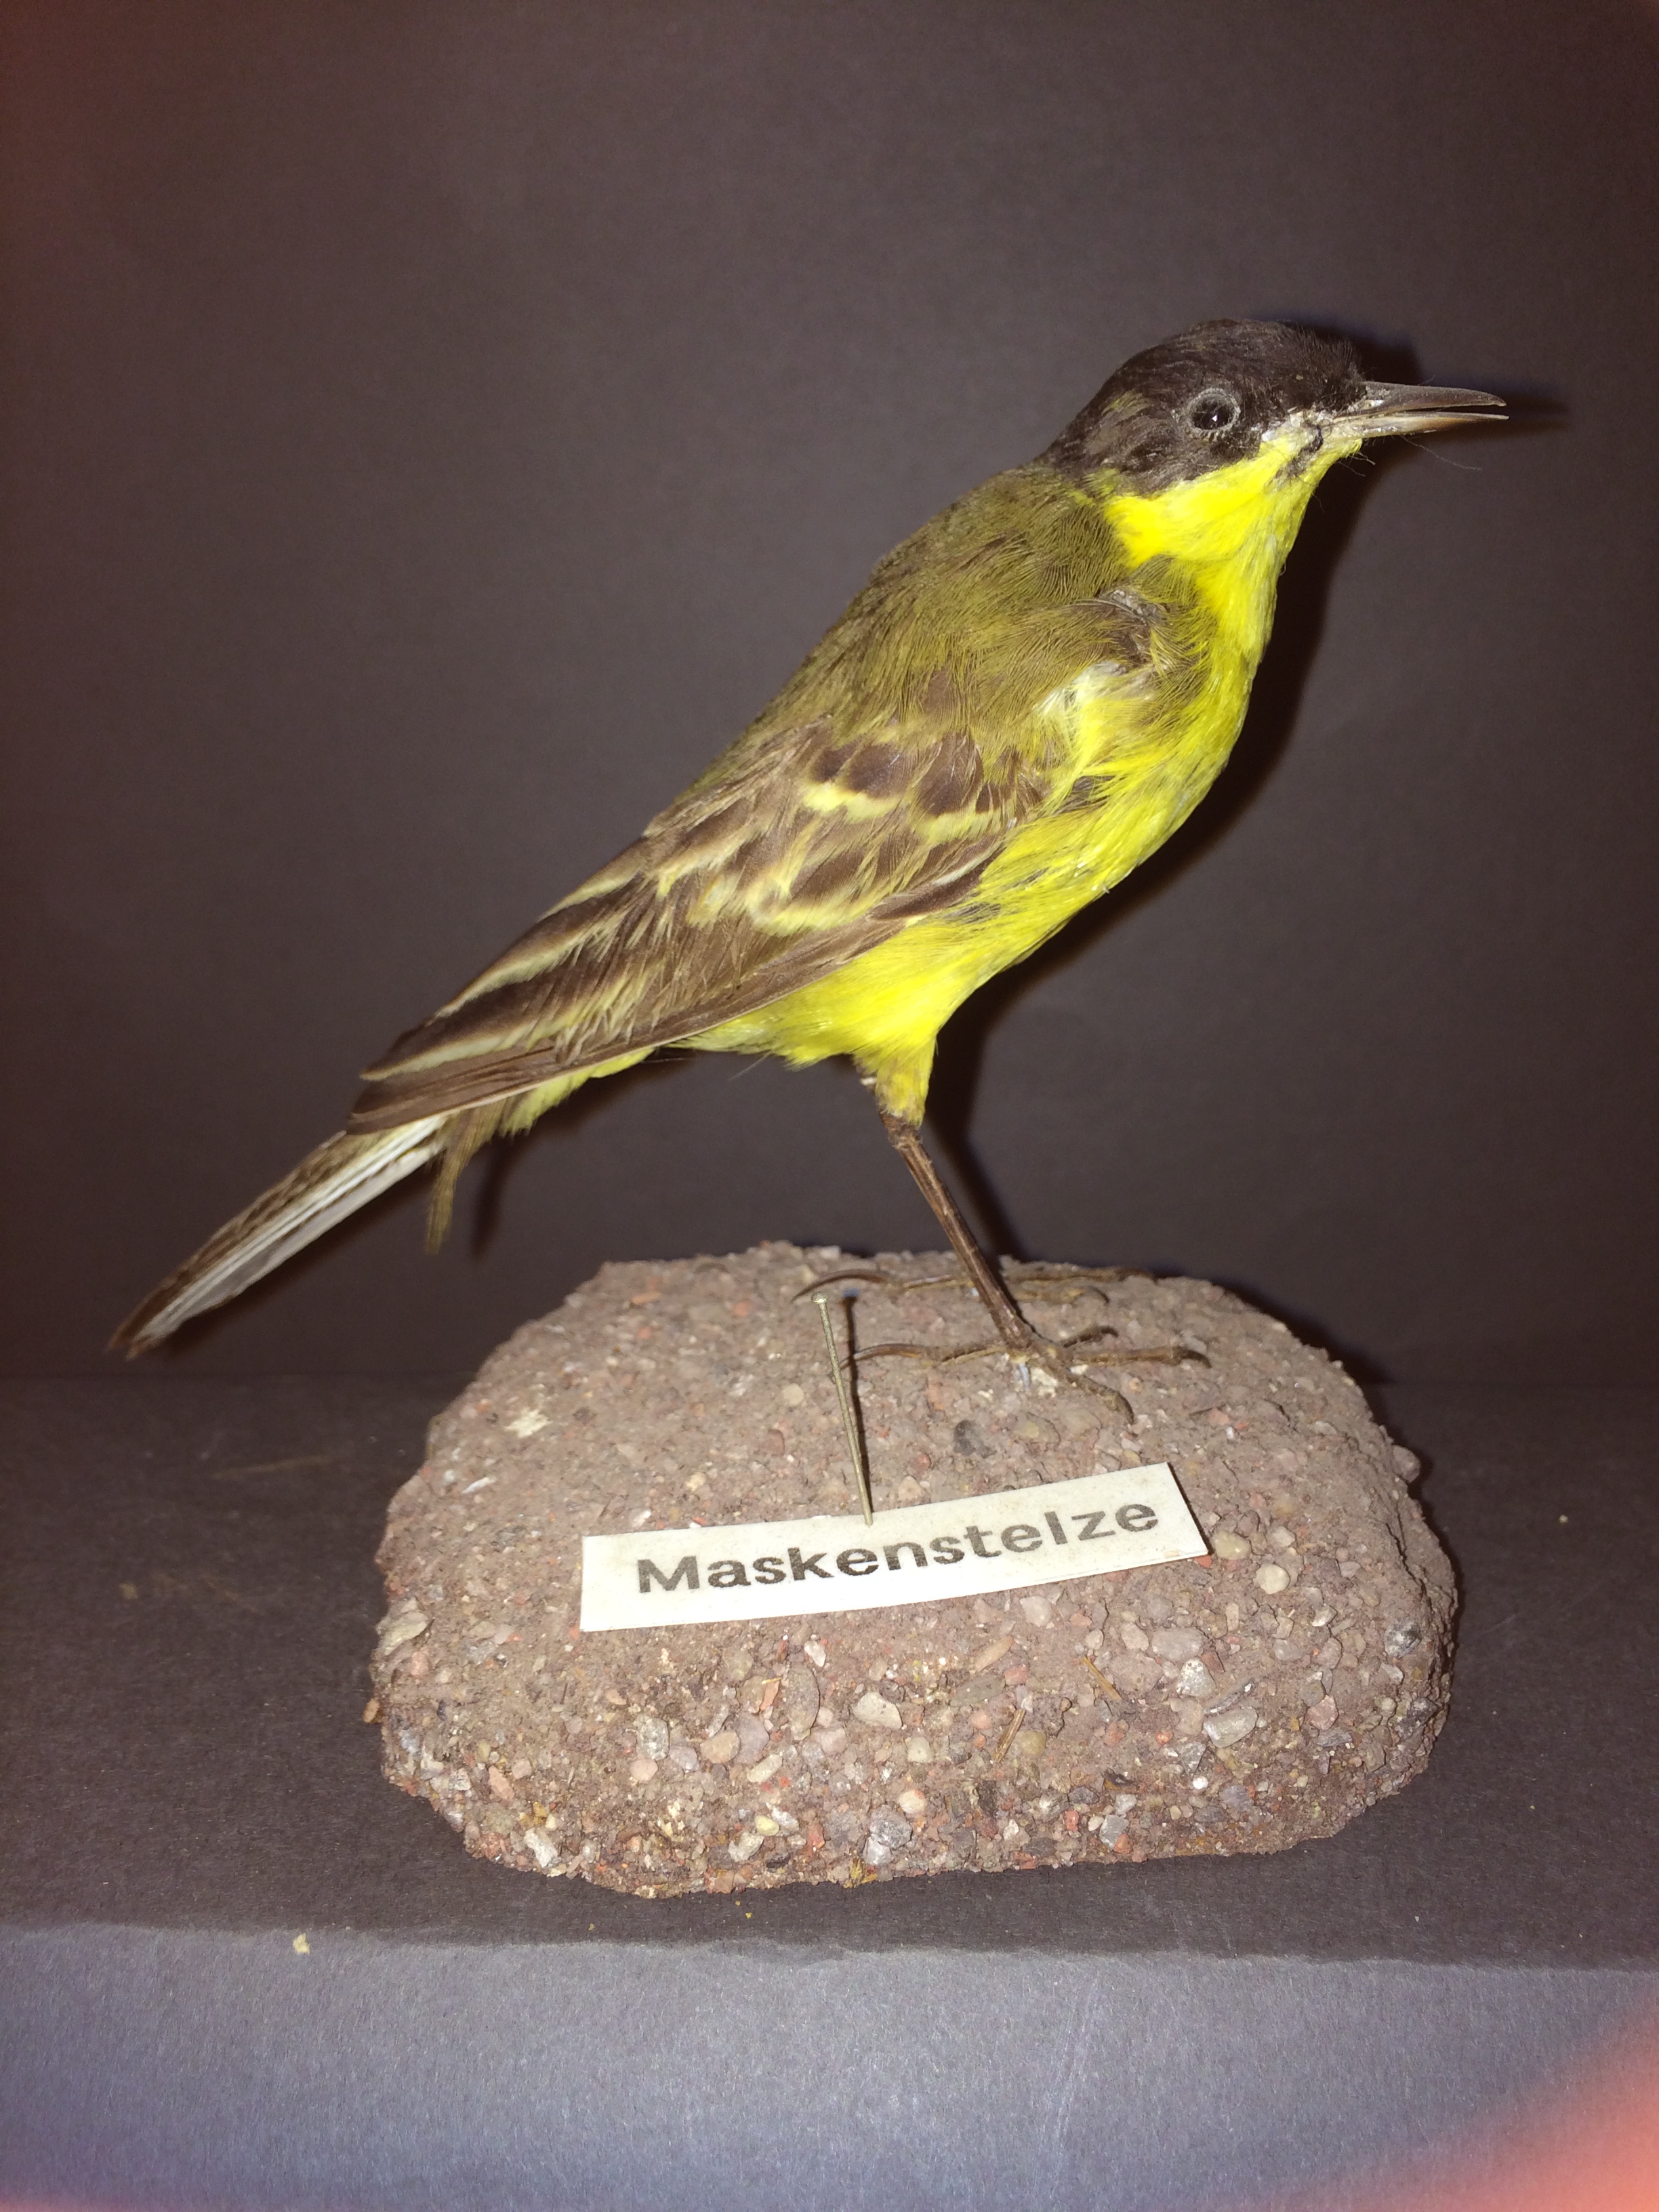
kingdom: Animalia
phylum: Chordata
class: Aves
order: Passeriformes
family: Motacillidae
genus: Motacilla
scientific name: Motacilla flava
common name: Western yellow wagtail
